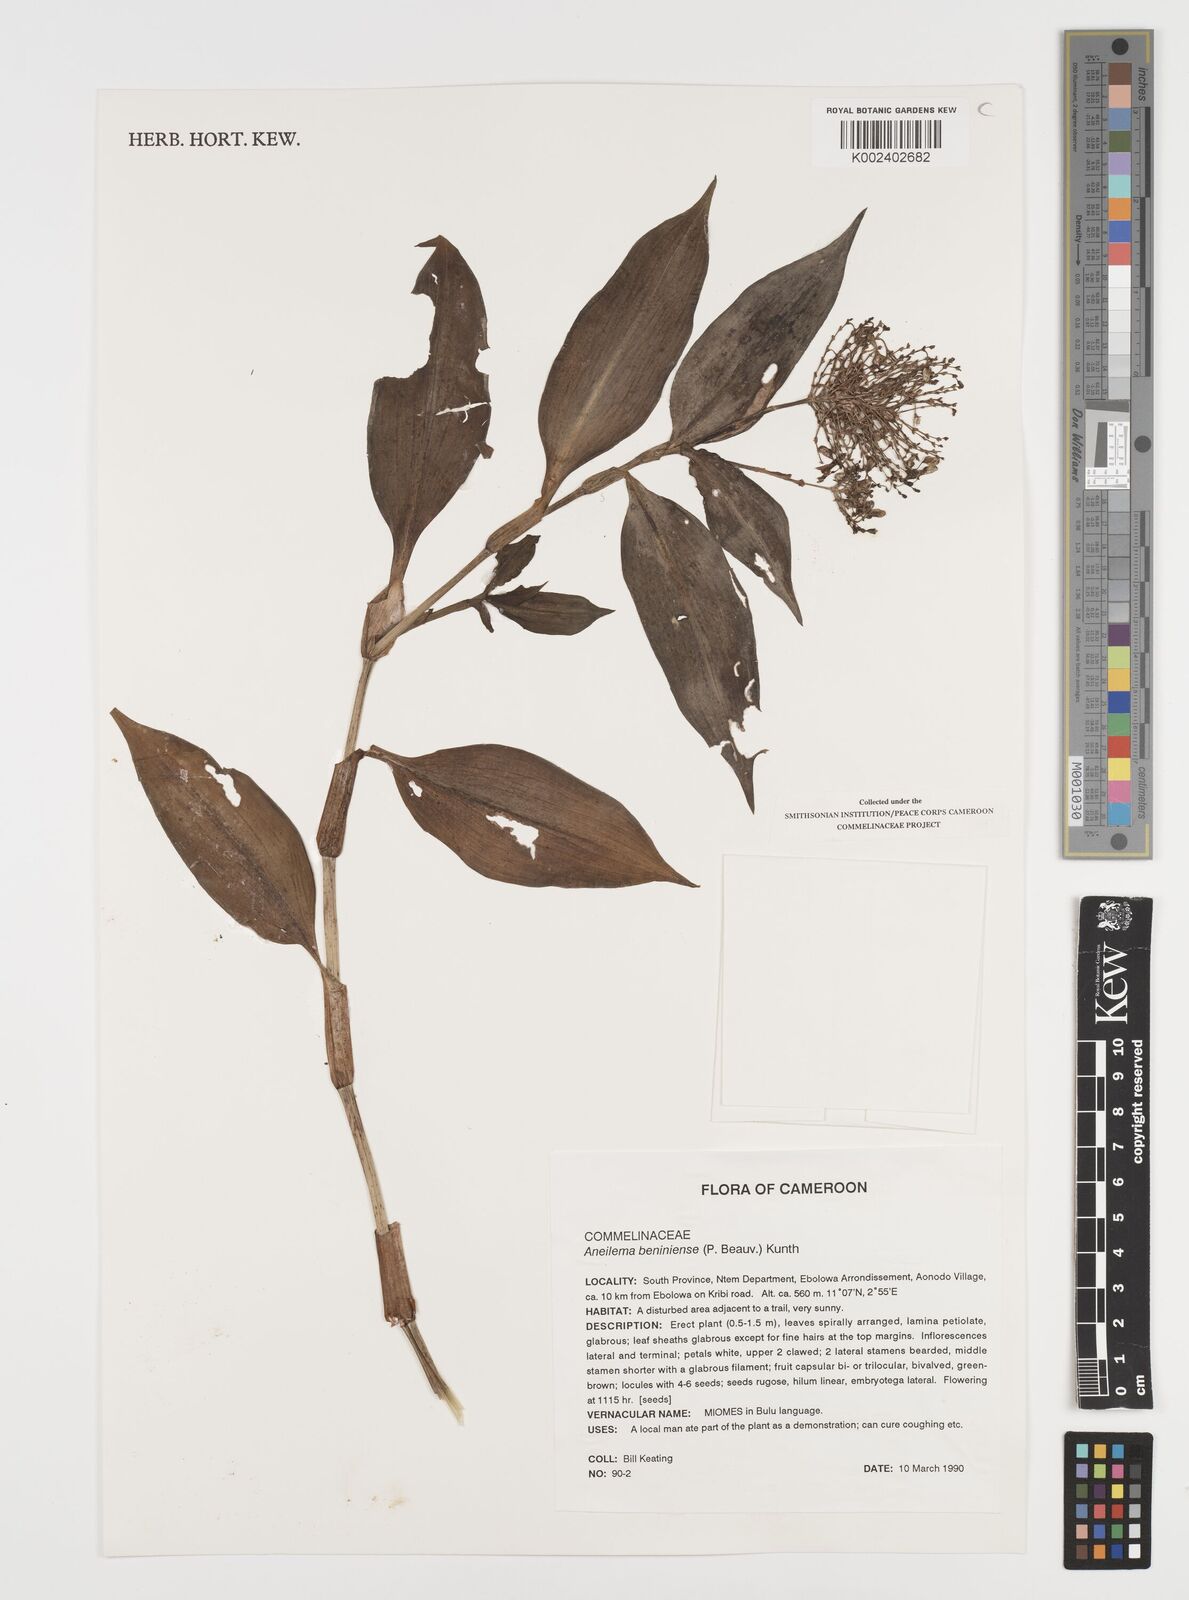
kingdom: Plantae
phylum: Tracheophyta
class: Liliopsida
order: Commelinales
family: Commelinaceae
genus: Aneilema
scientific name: Aneilema beniniense
